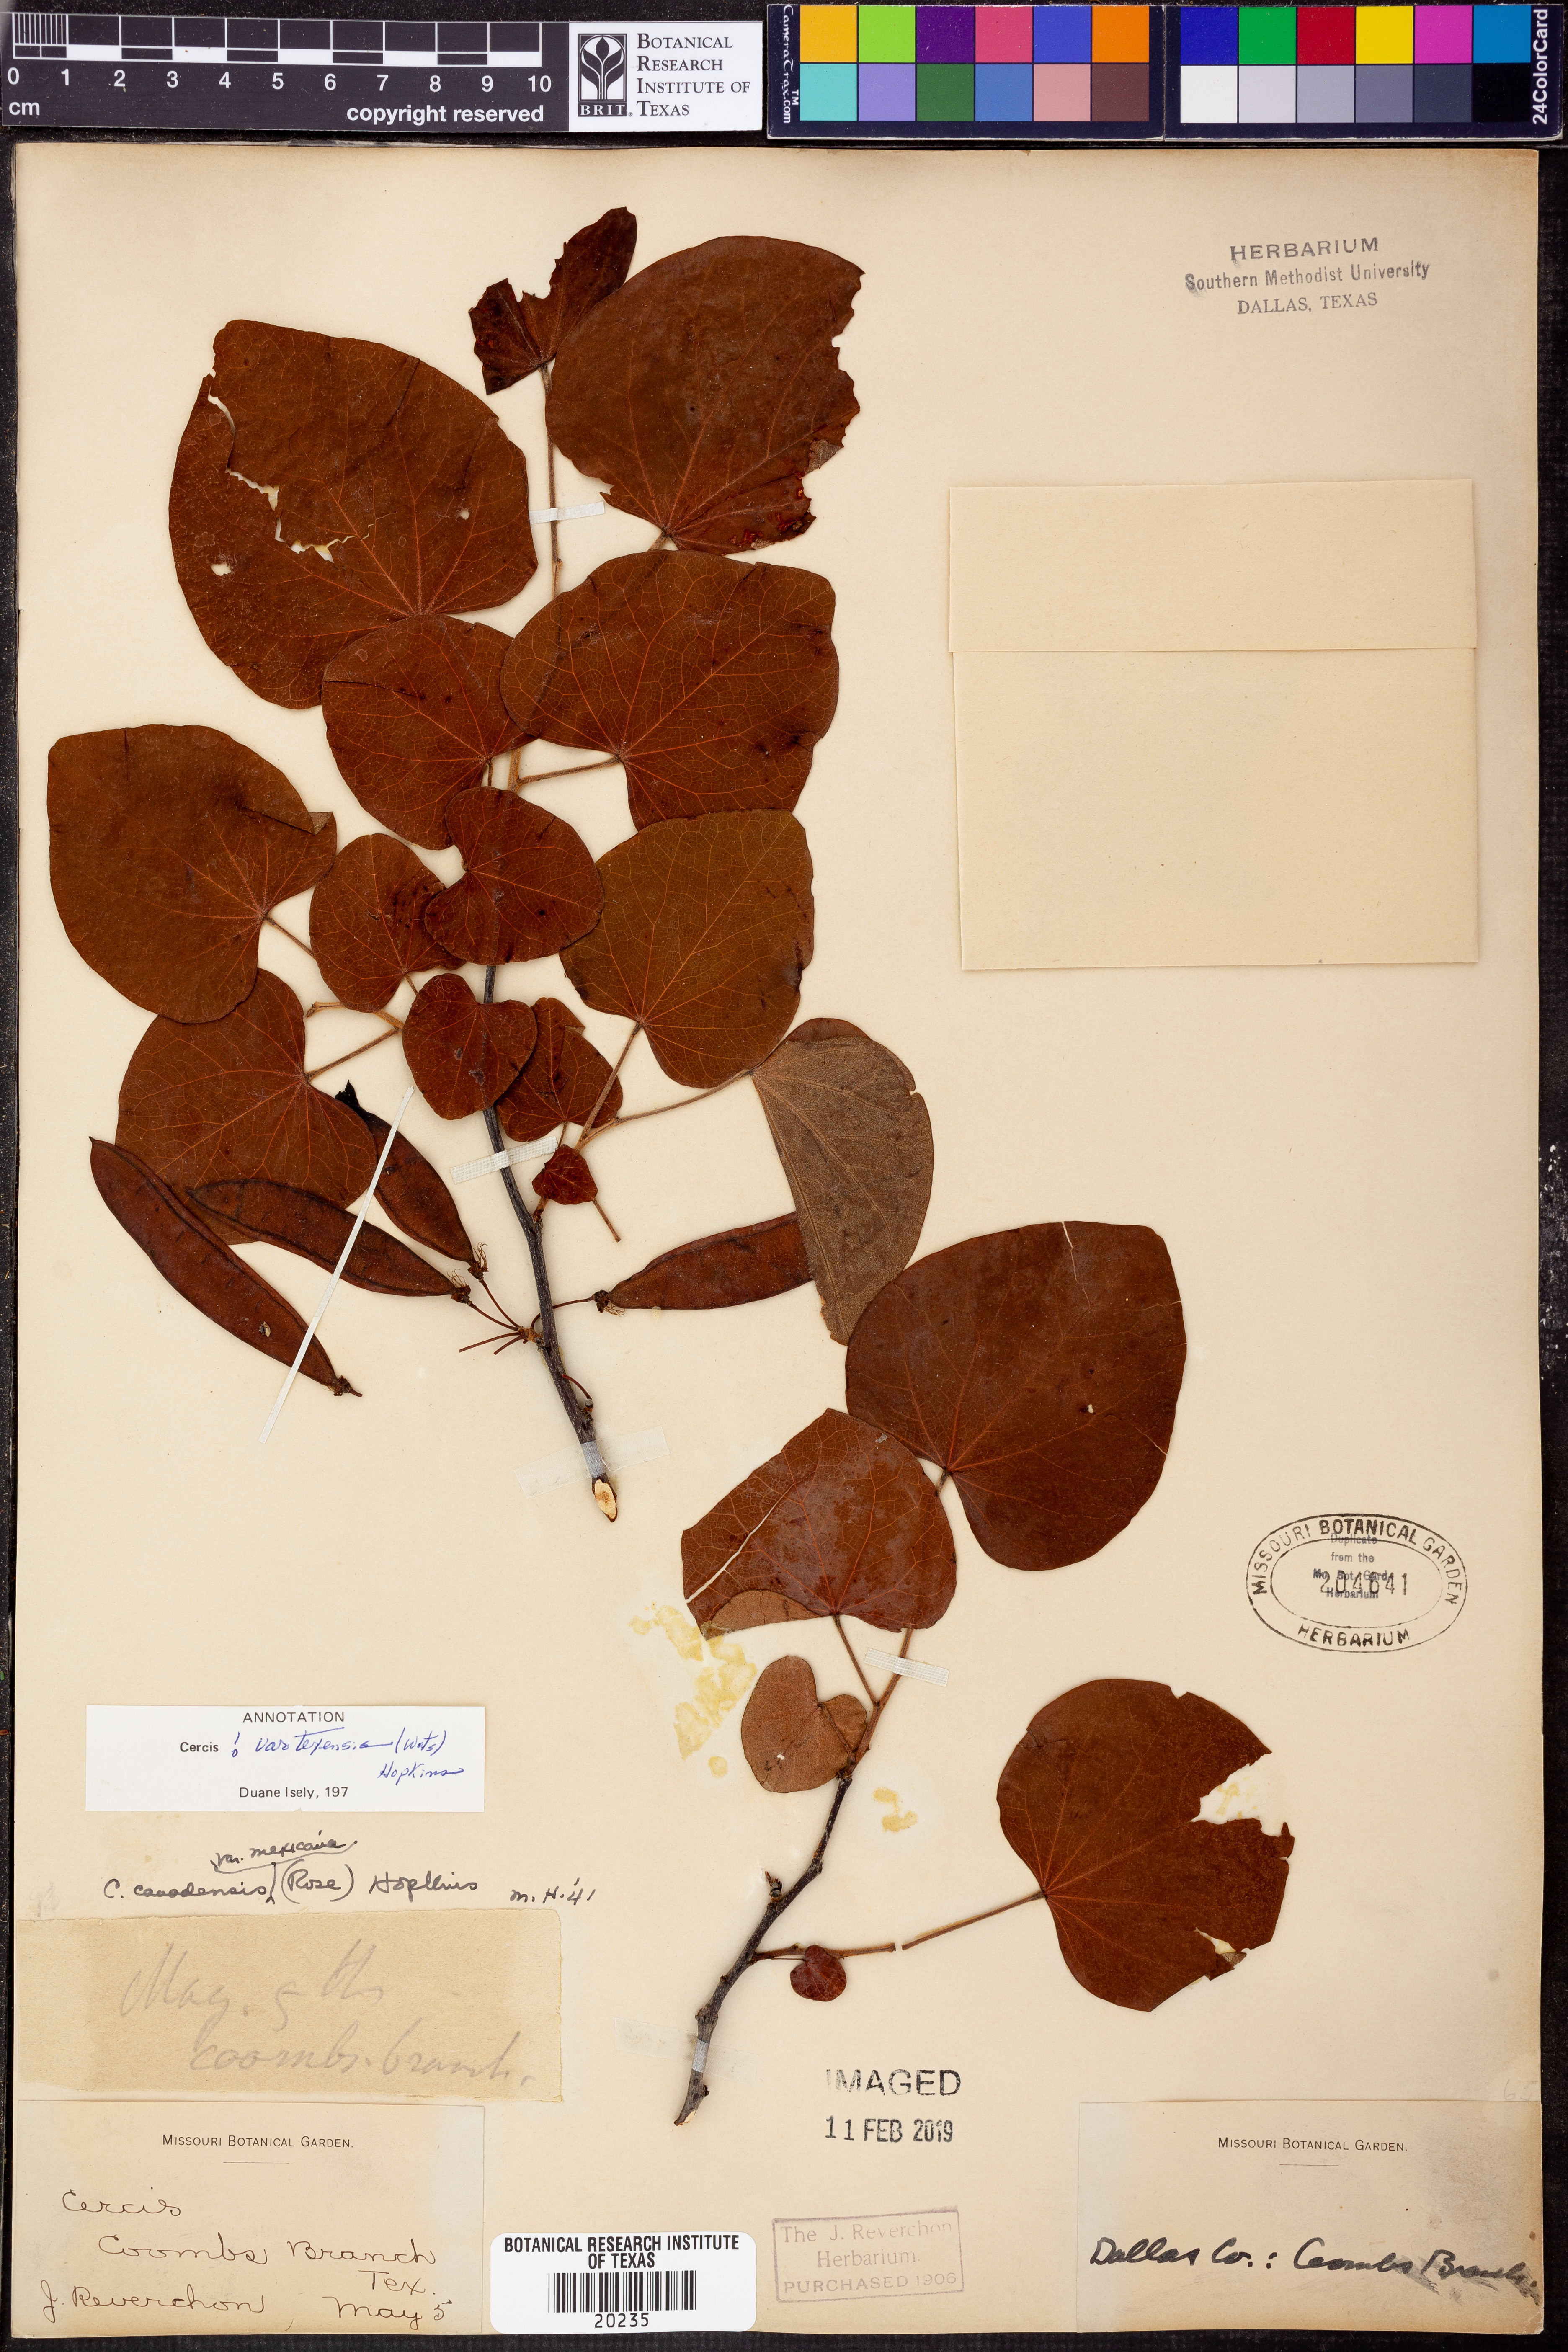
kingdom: Plantae
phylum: Tracheophyta
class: Magnoliopsida
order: Fabales
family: Fabaceae
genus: Cercis
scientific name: Cercis canadensis
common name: Eastern redbud
